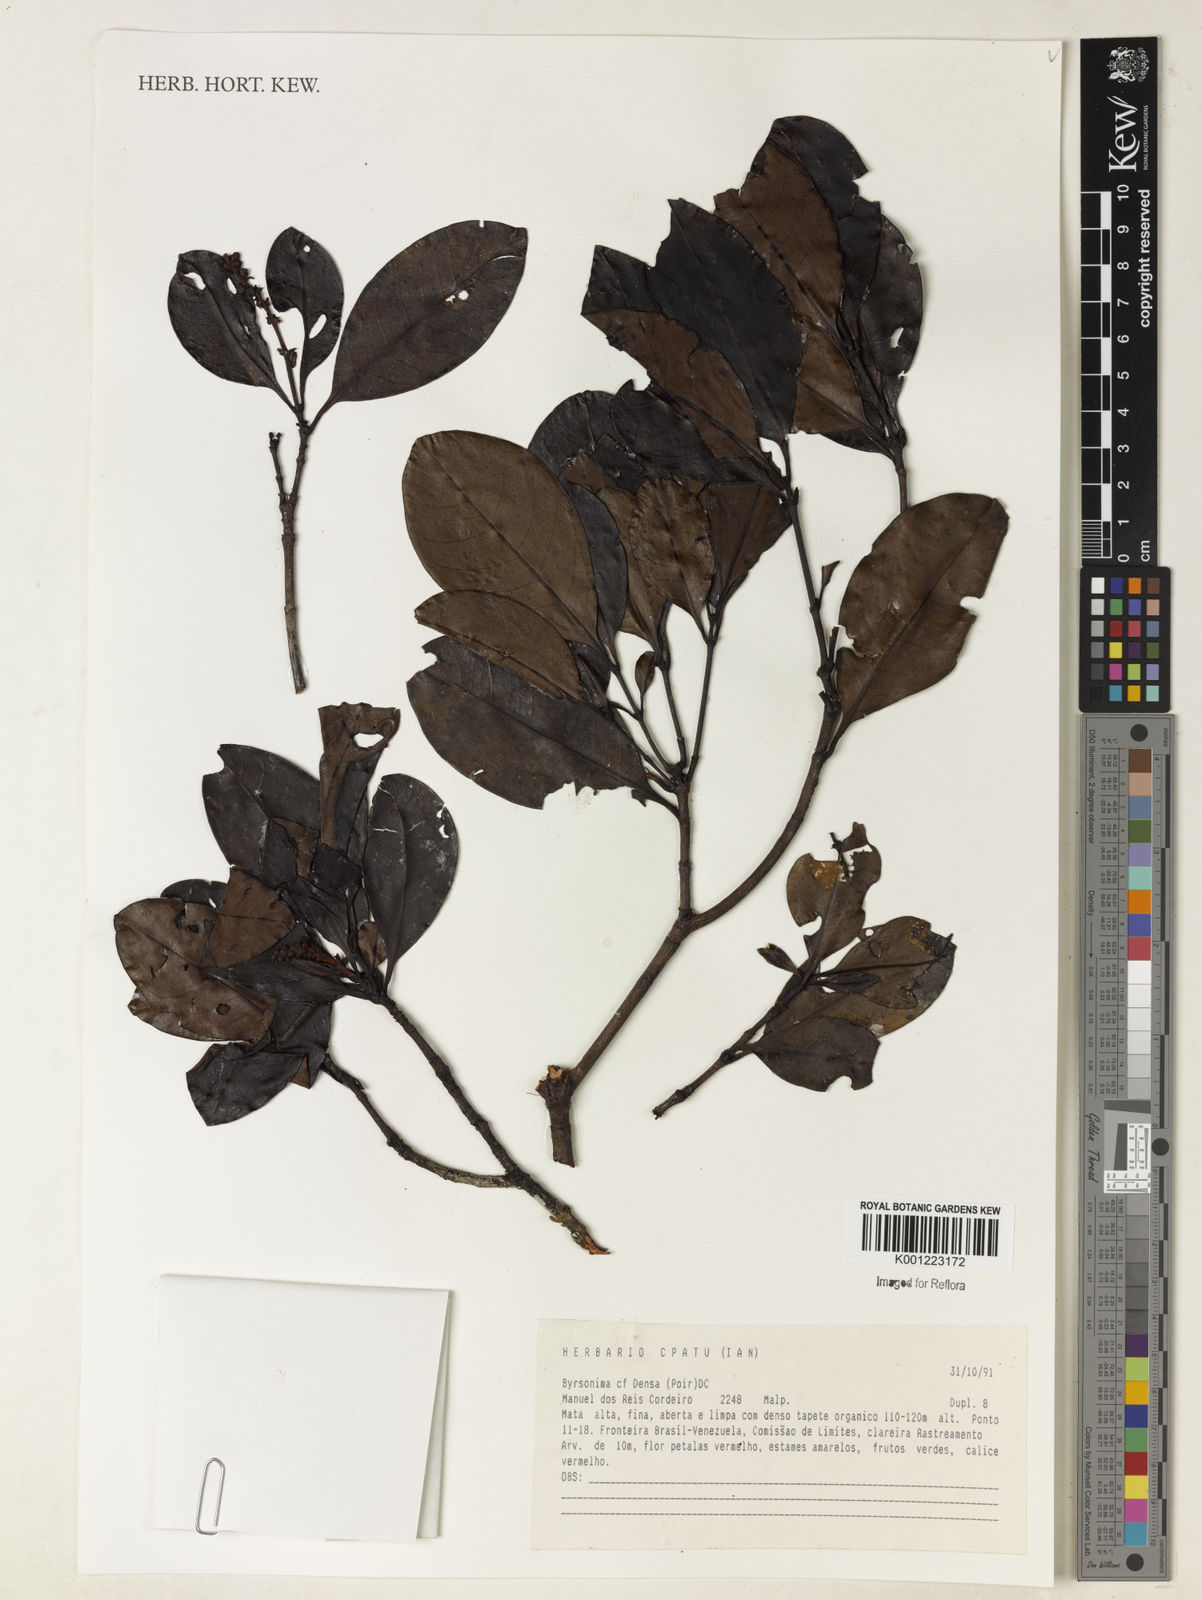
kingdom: Plantae
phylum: Tracheophyta
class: Magnoliopsida
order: Malpighiales
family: Malpighiaceae
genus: Byrsonima
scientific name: Byrsonima
